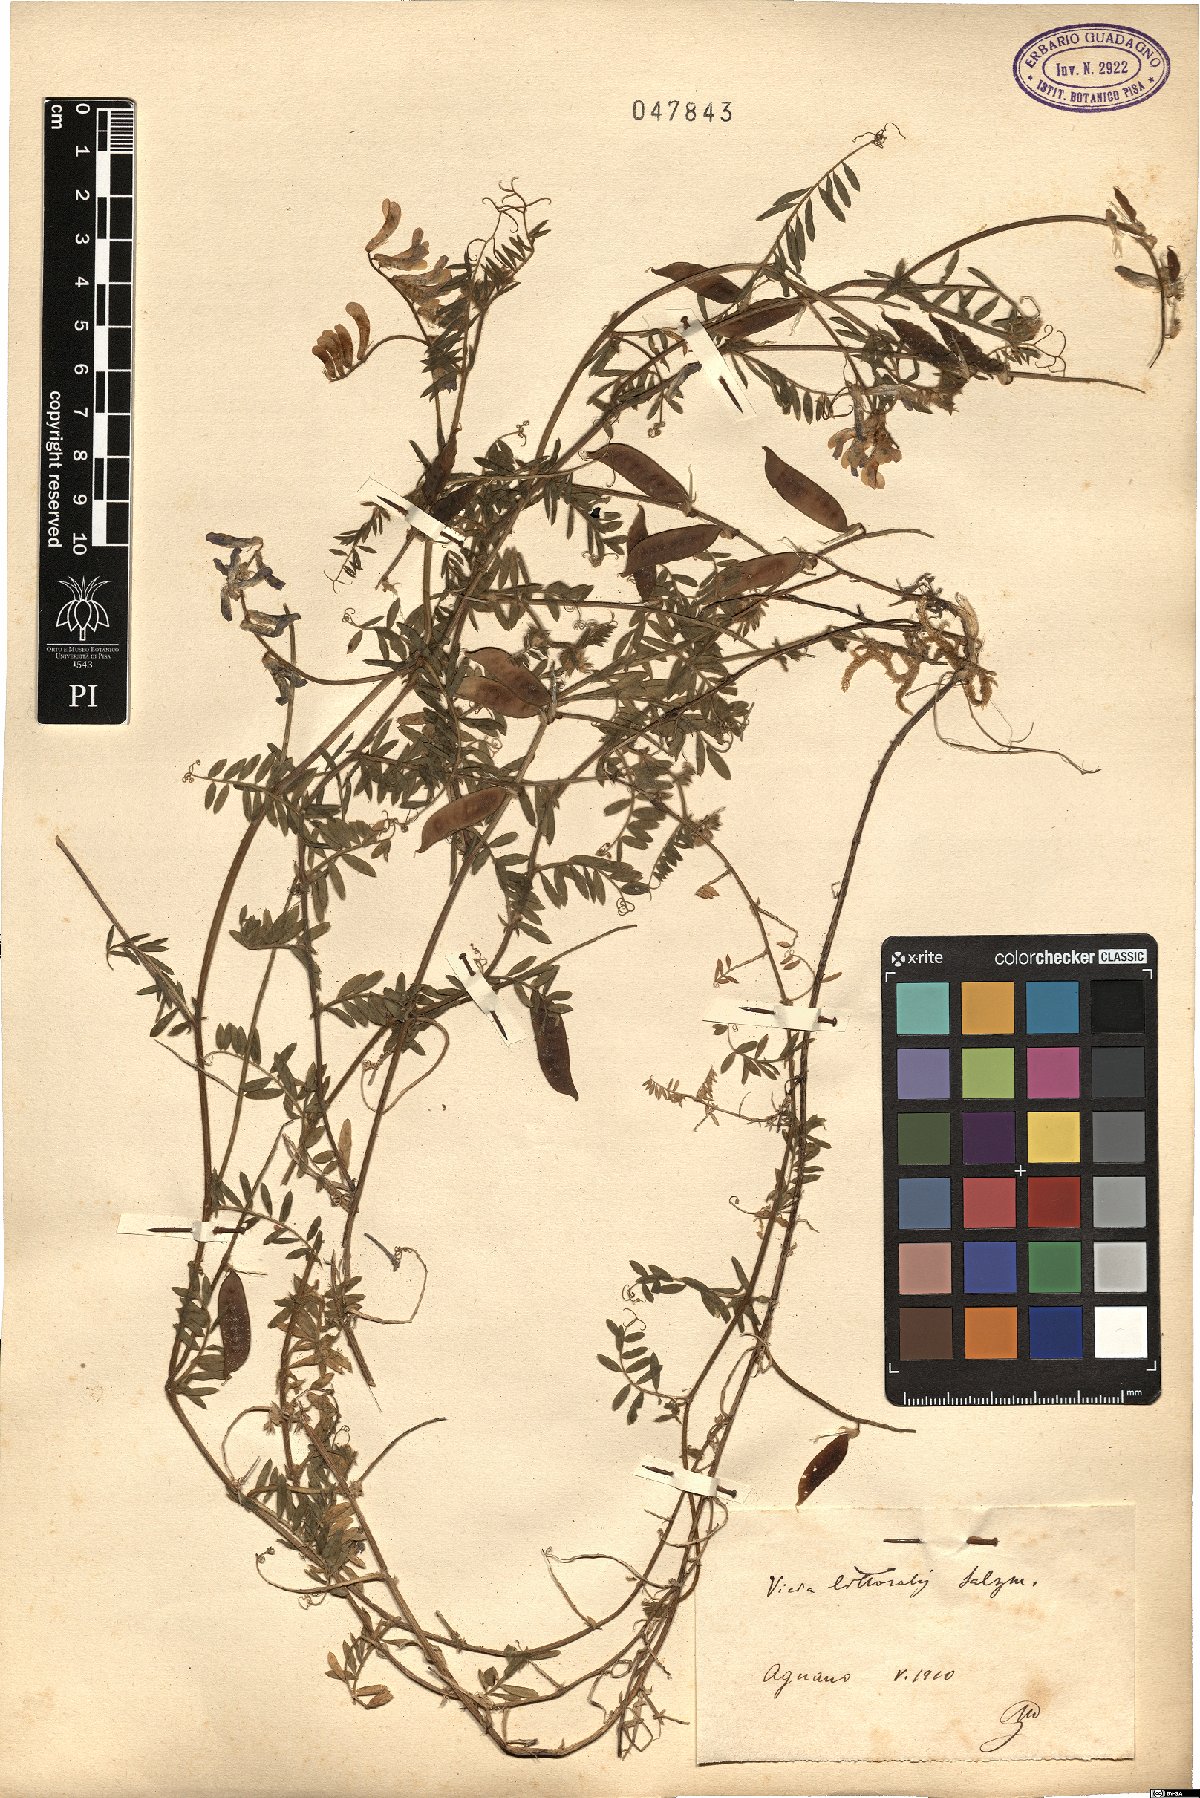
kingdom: Plantae
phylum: Tracheophyta
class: Magnoliopsida
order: Fabales
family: Fabaceae
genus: Vicia
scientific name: Vicia villosa
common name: Fodder vetch
